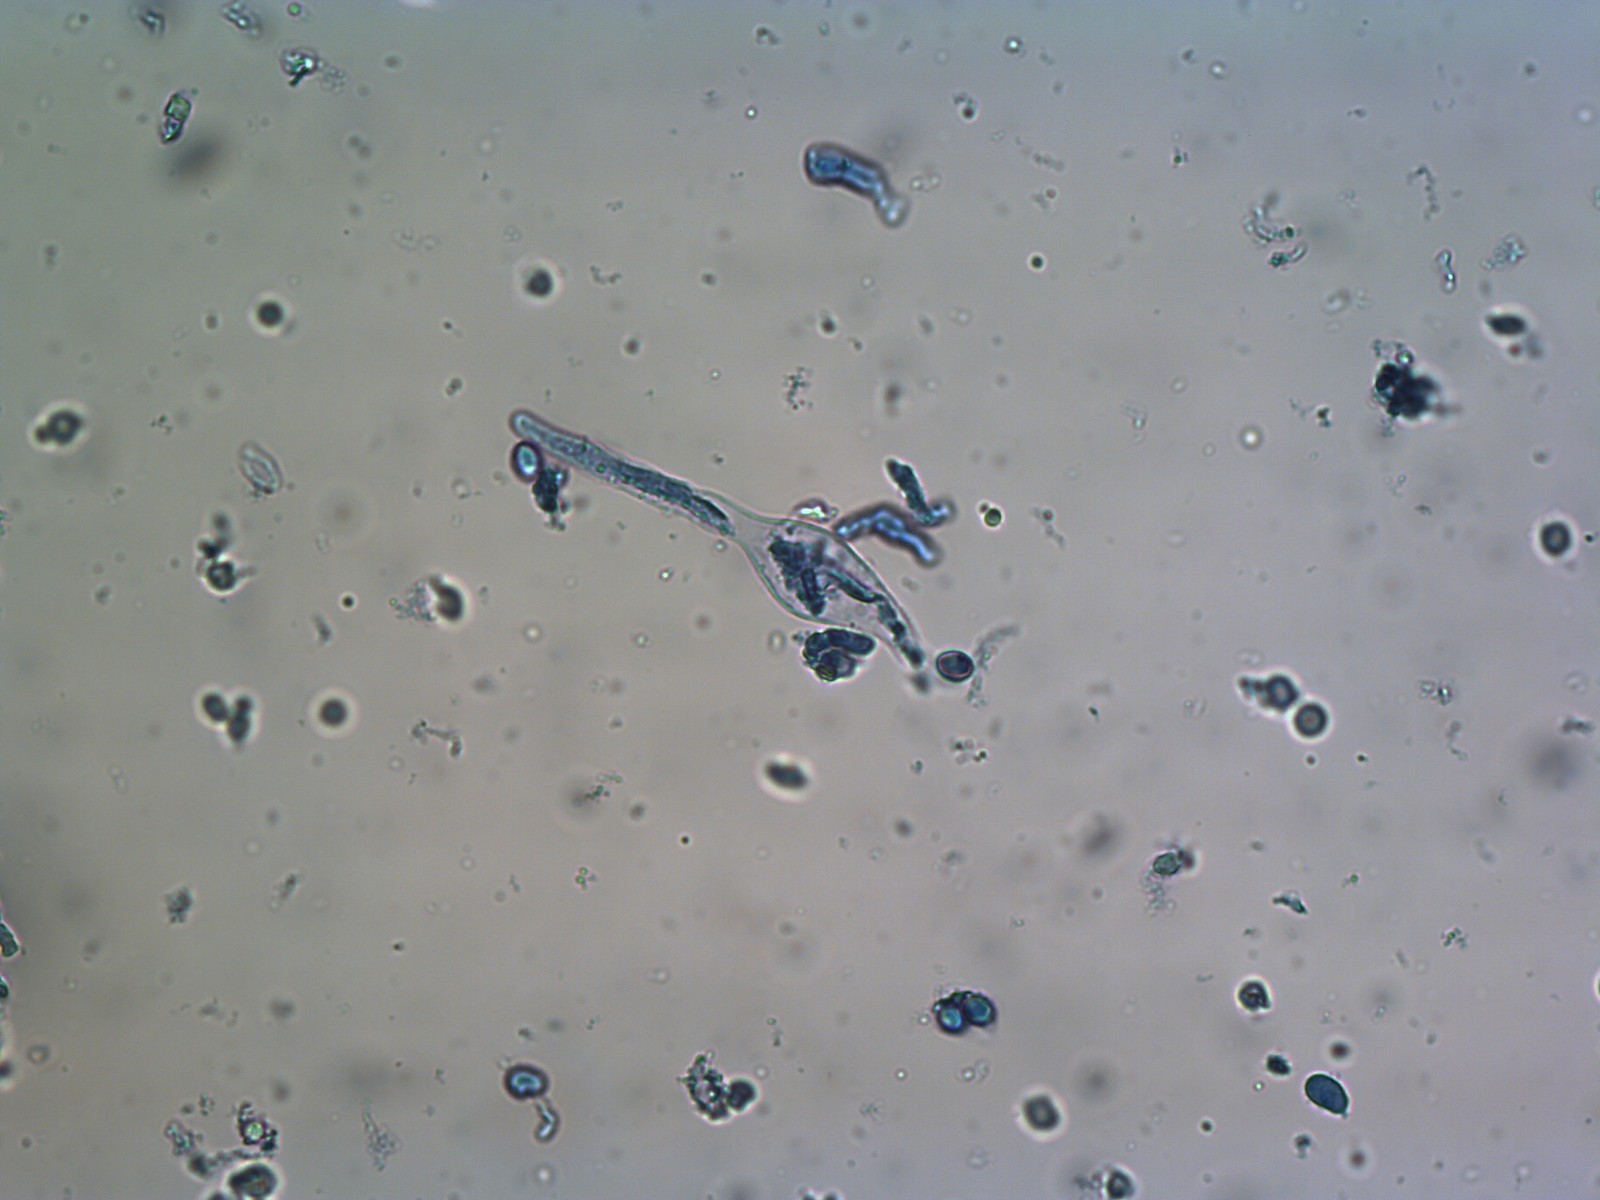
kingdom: Fungi
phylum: Basidiomycota
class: Agaricomycetes
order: Agaricales
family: Mycenaceae
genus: Mycena
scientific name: Mycena aetites
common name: plæne-huesvamp
